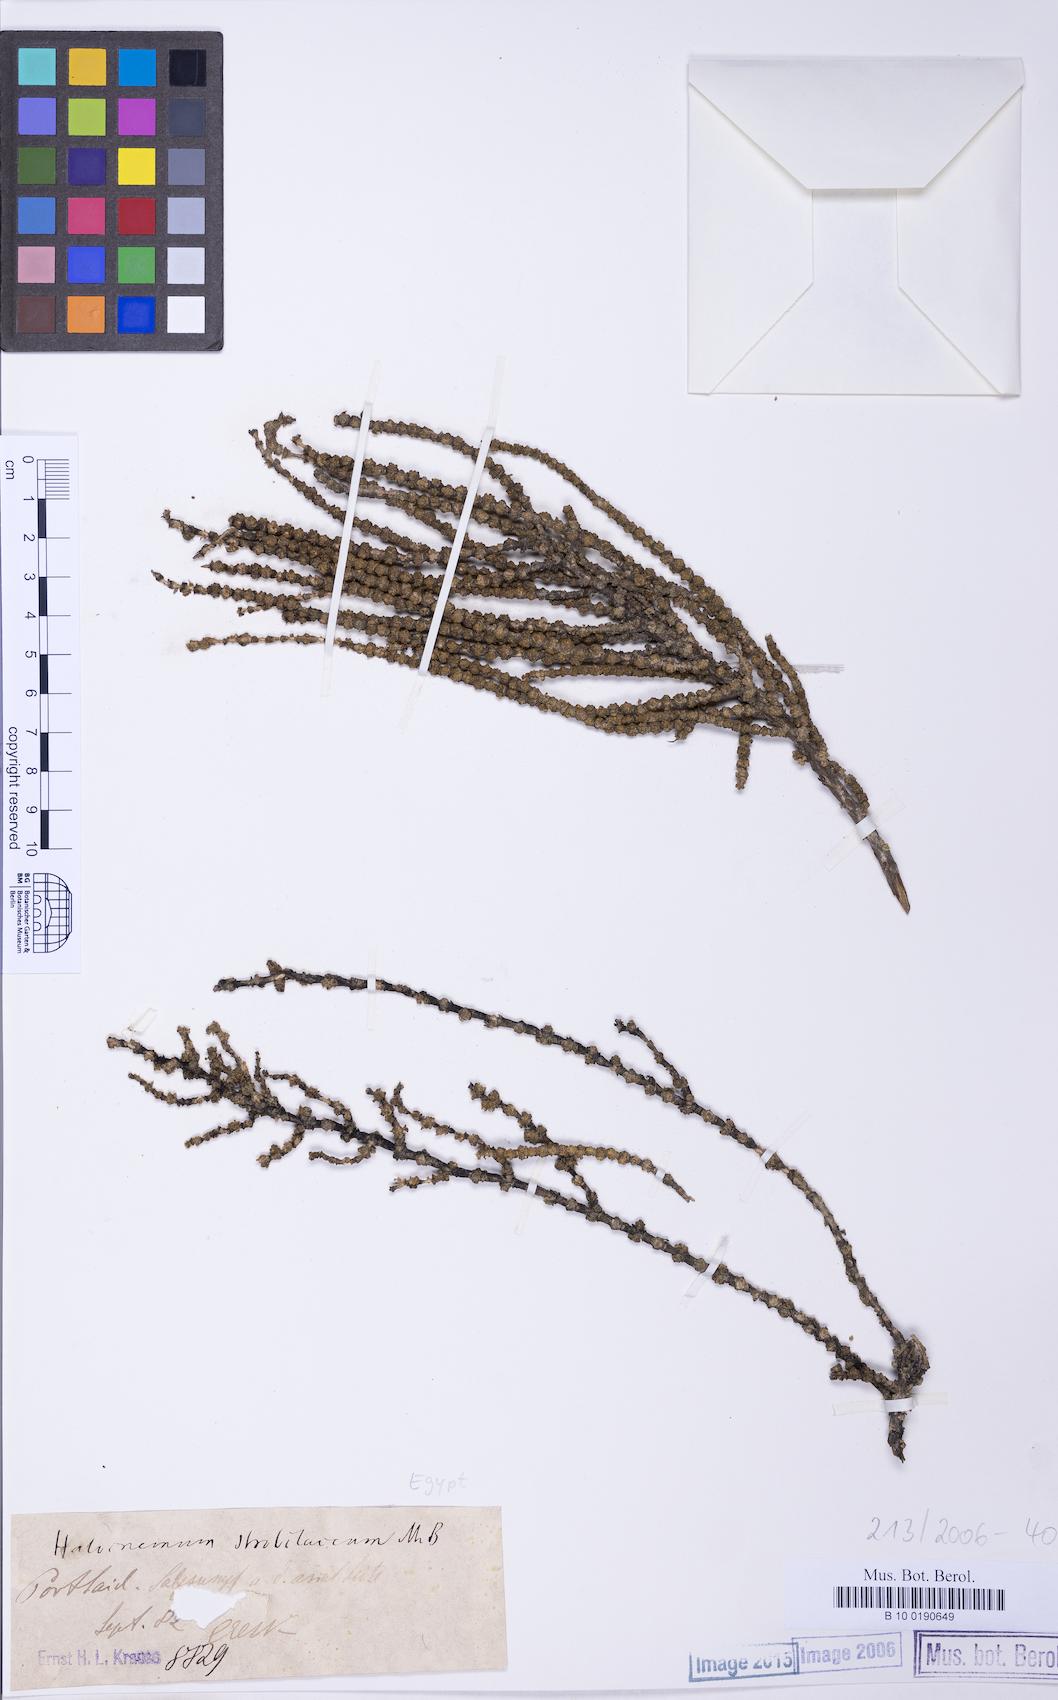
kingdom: Plantae
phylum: Tracheophyta
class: Magnoliopsida
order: Caryophyllales
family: Amaranthaceae
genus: Halocnemum
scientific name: Halocnemum strobilaceum
